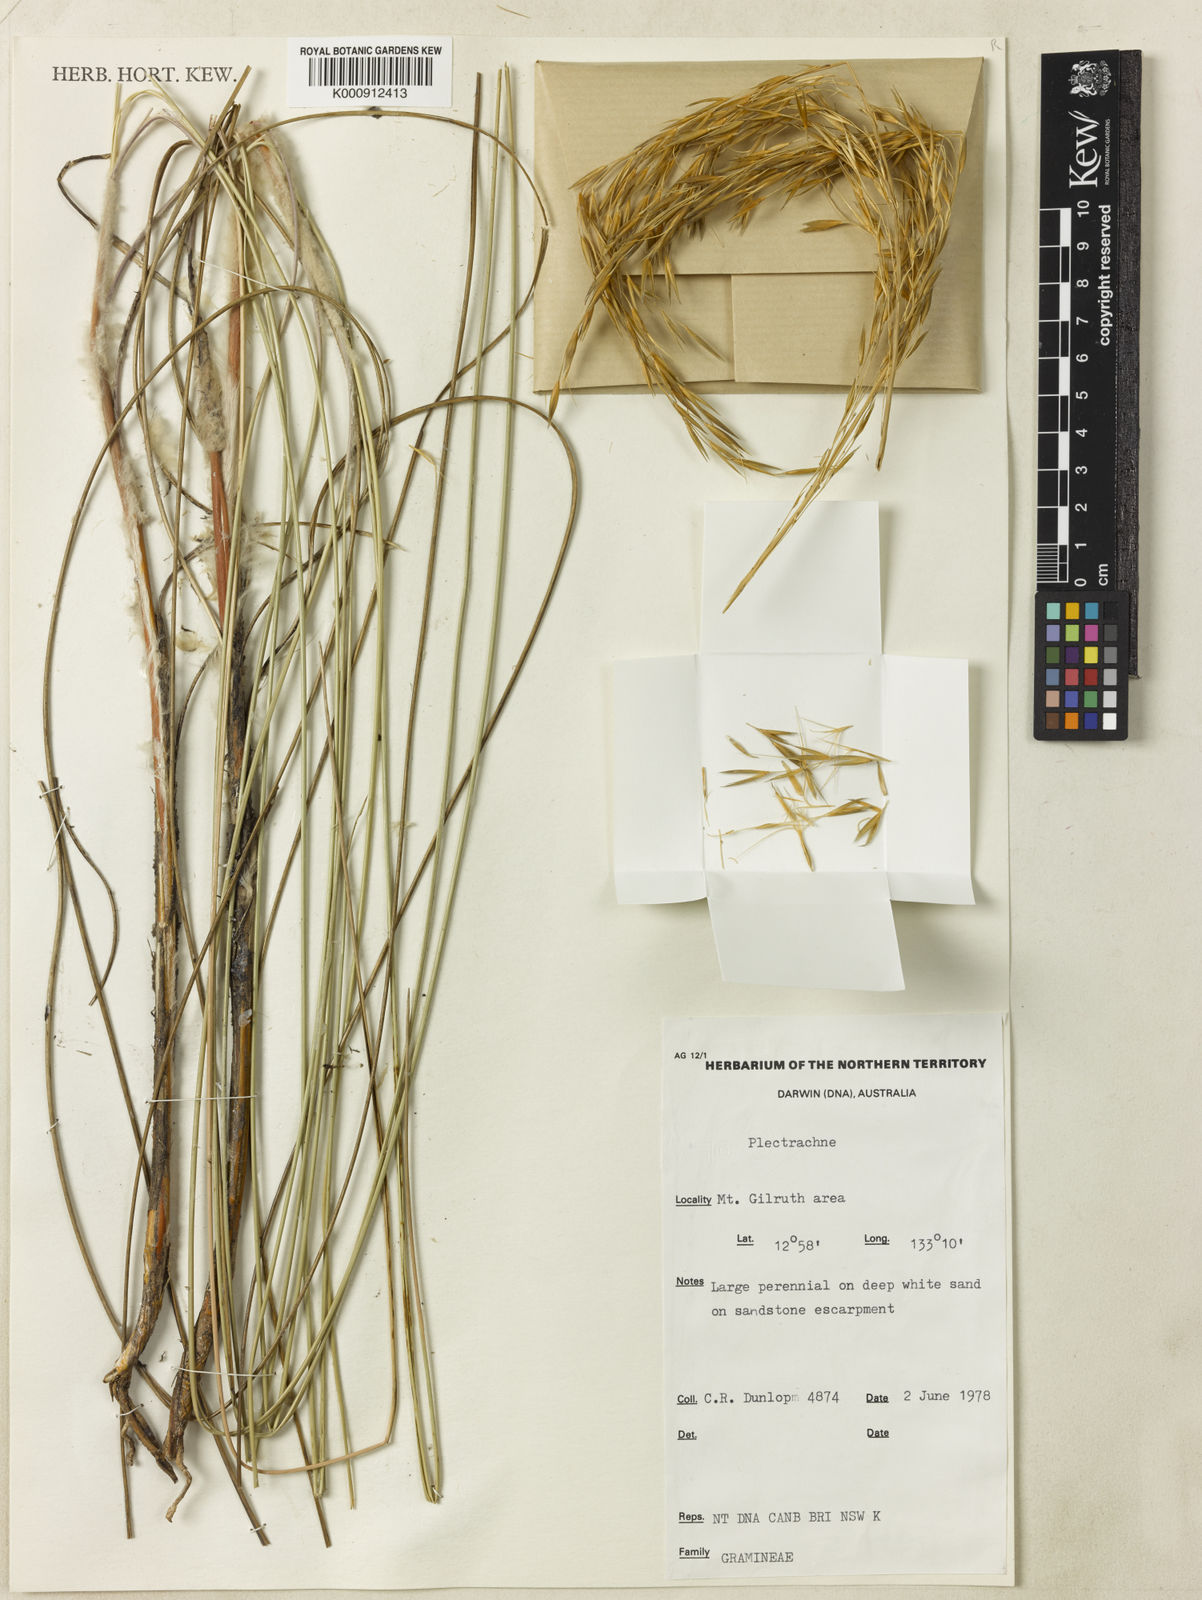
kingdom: Plantae
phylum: Tracheophyta
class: Liliopsida
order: Poales
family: Poaceae
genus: Triodia
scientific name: Triodia lanosa
